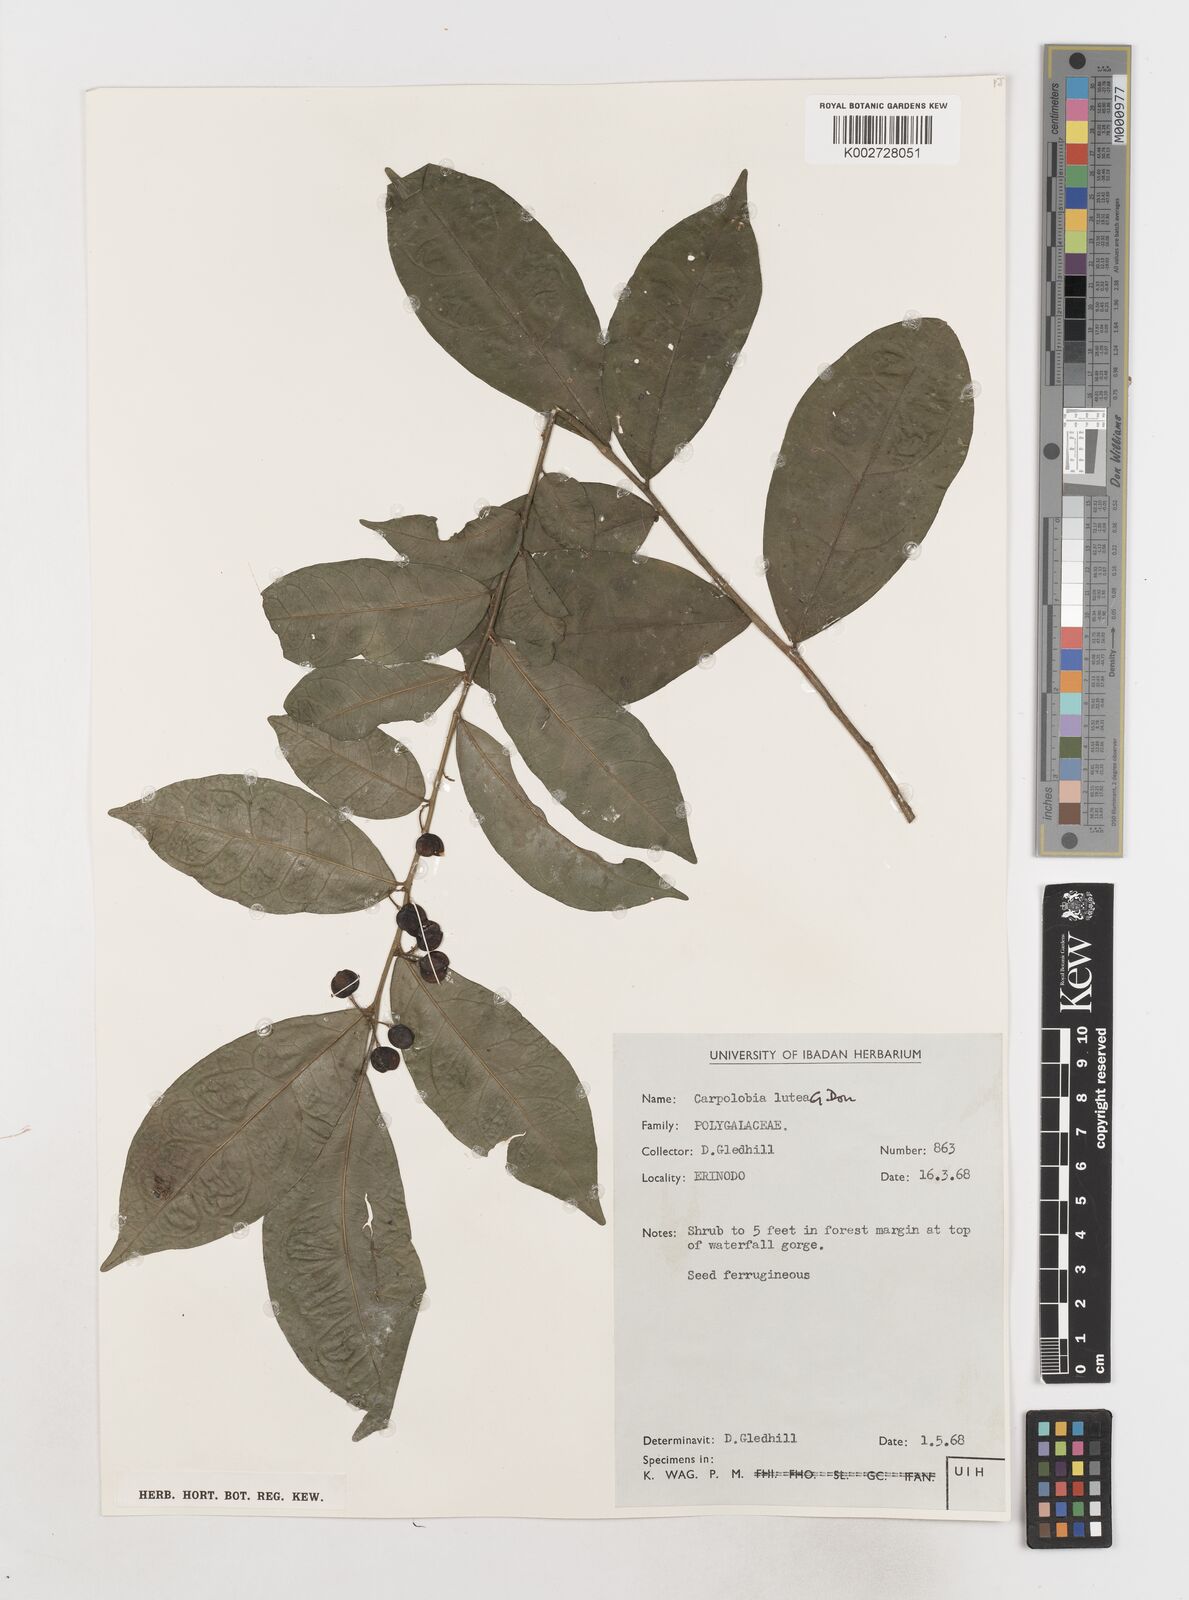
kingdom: Plantae
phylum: Tracheophyta
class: Magnoliopsida
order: Fabales
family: Polygalaceae
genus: Carpolobia
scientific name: Carpolobia lutea
